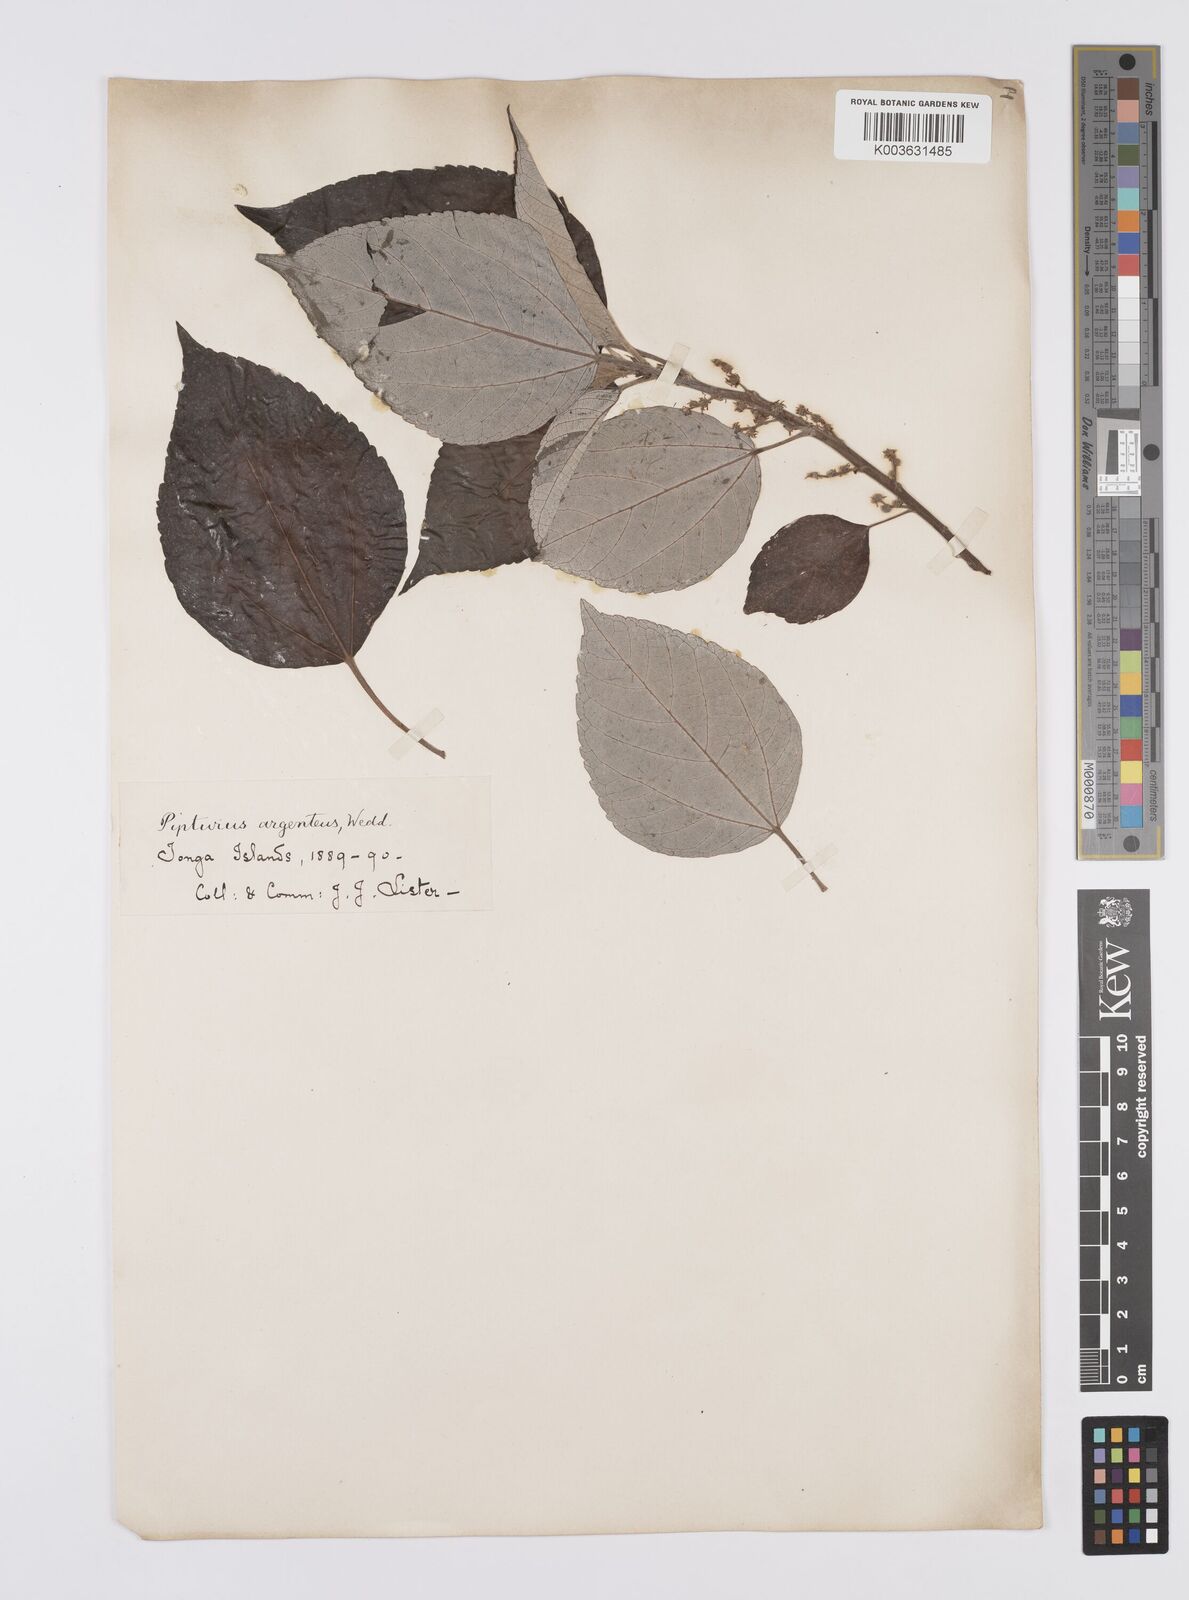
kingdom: Plantae
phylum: Tracheophyta
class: Magnoliopsida
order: Rosales
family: Urticaceae
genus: Pipturus
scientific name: Pipturus argenteus
